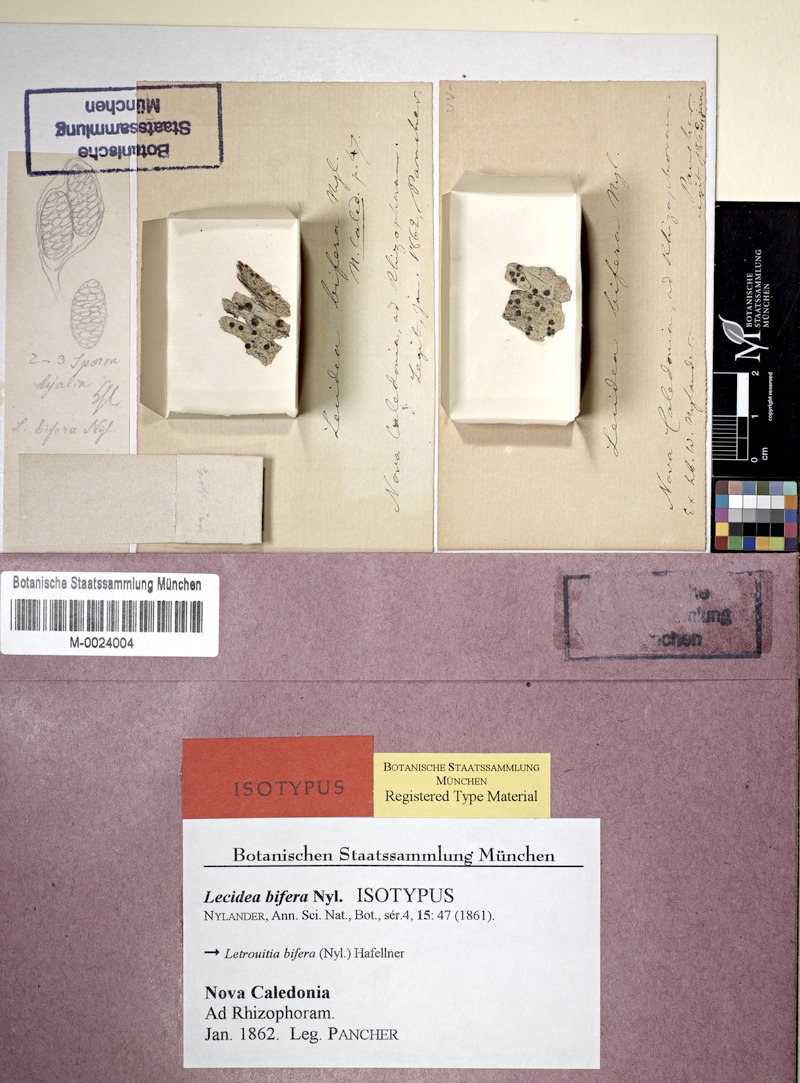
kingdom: Fungi
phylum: Ascomycota
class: Lecanoromycetes
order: Teloschistales
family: Letrouitiaceae
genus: Letrouitia
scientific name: Letrouitia bifera
